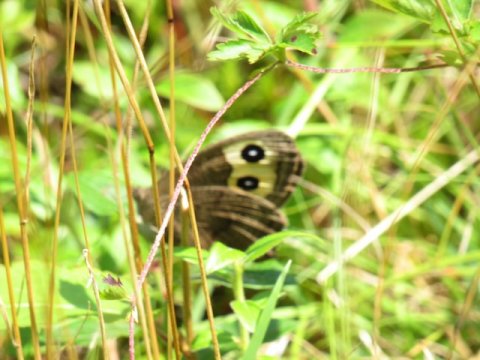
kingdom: Animalia
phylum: Arthropoda
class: Insecta
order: Lepidoptera
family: Nymphalidae
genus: Cercyonis
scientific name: Cercyonis pegala
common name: Common Wood-Nymph
